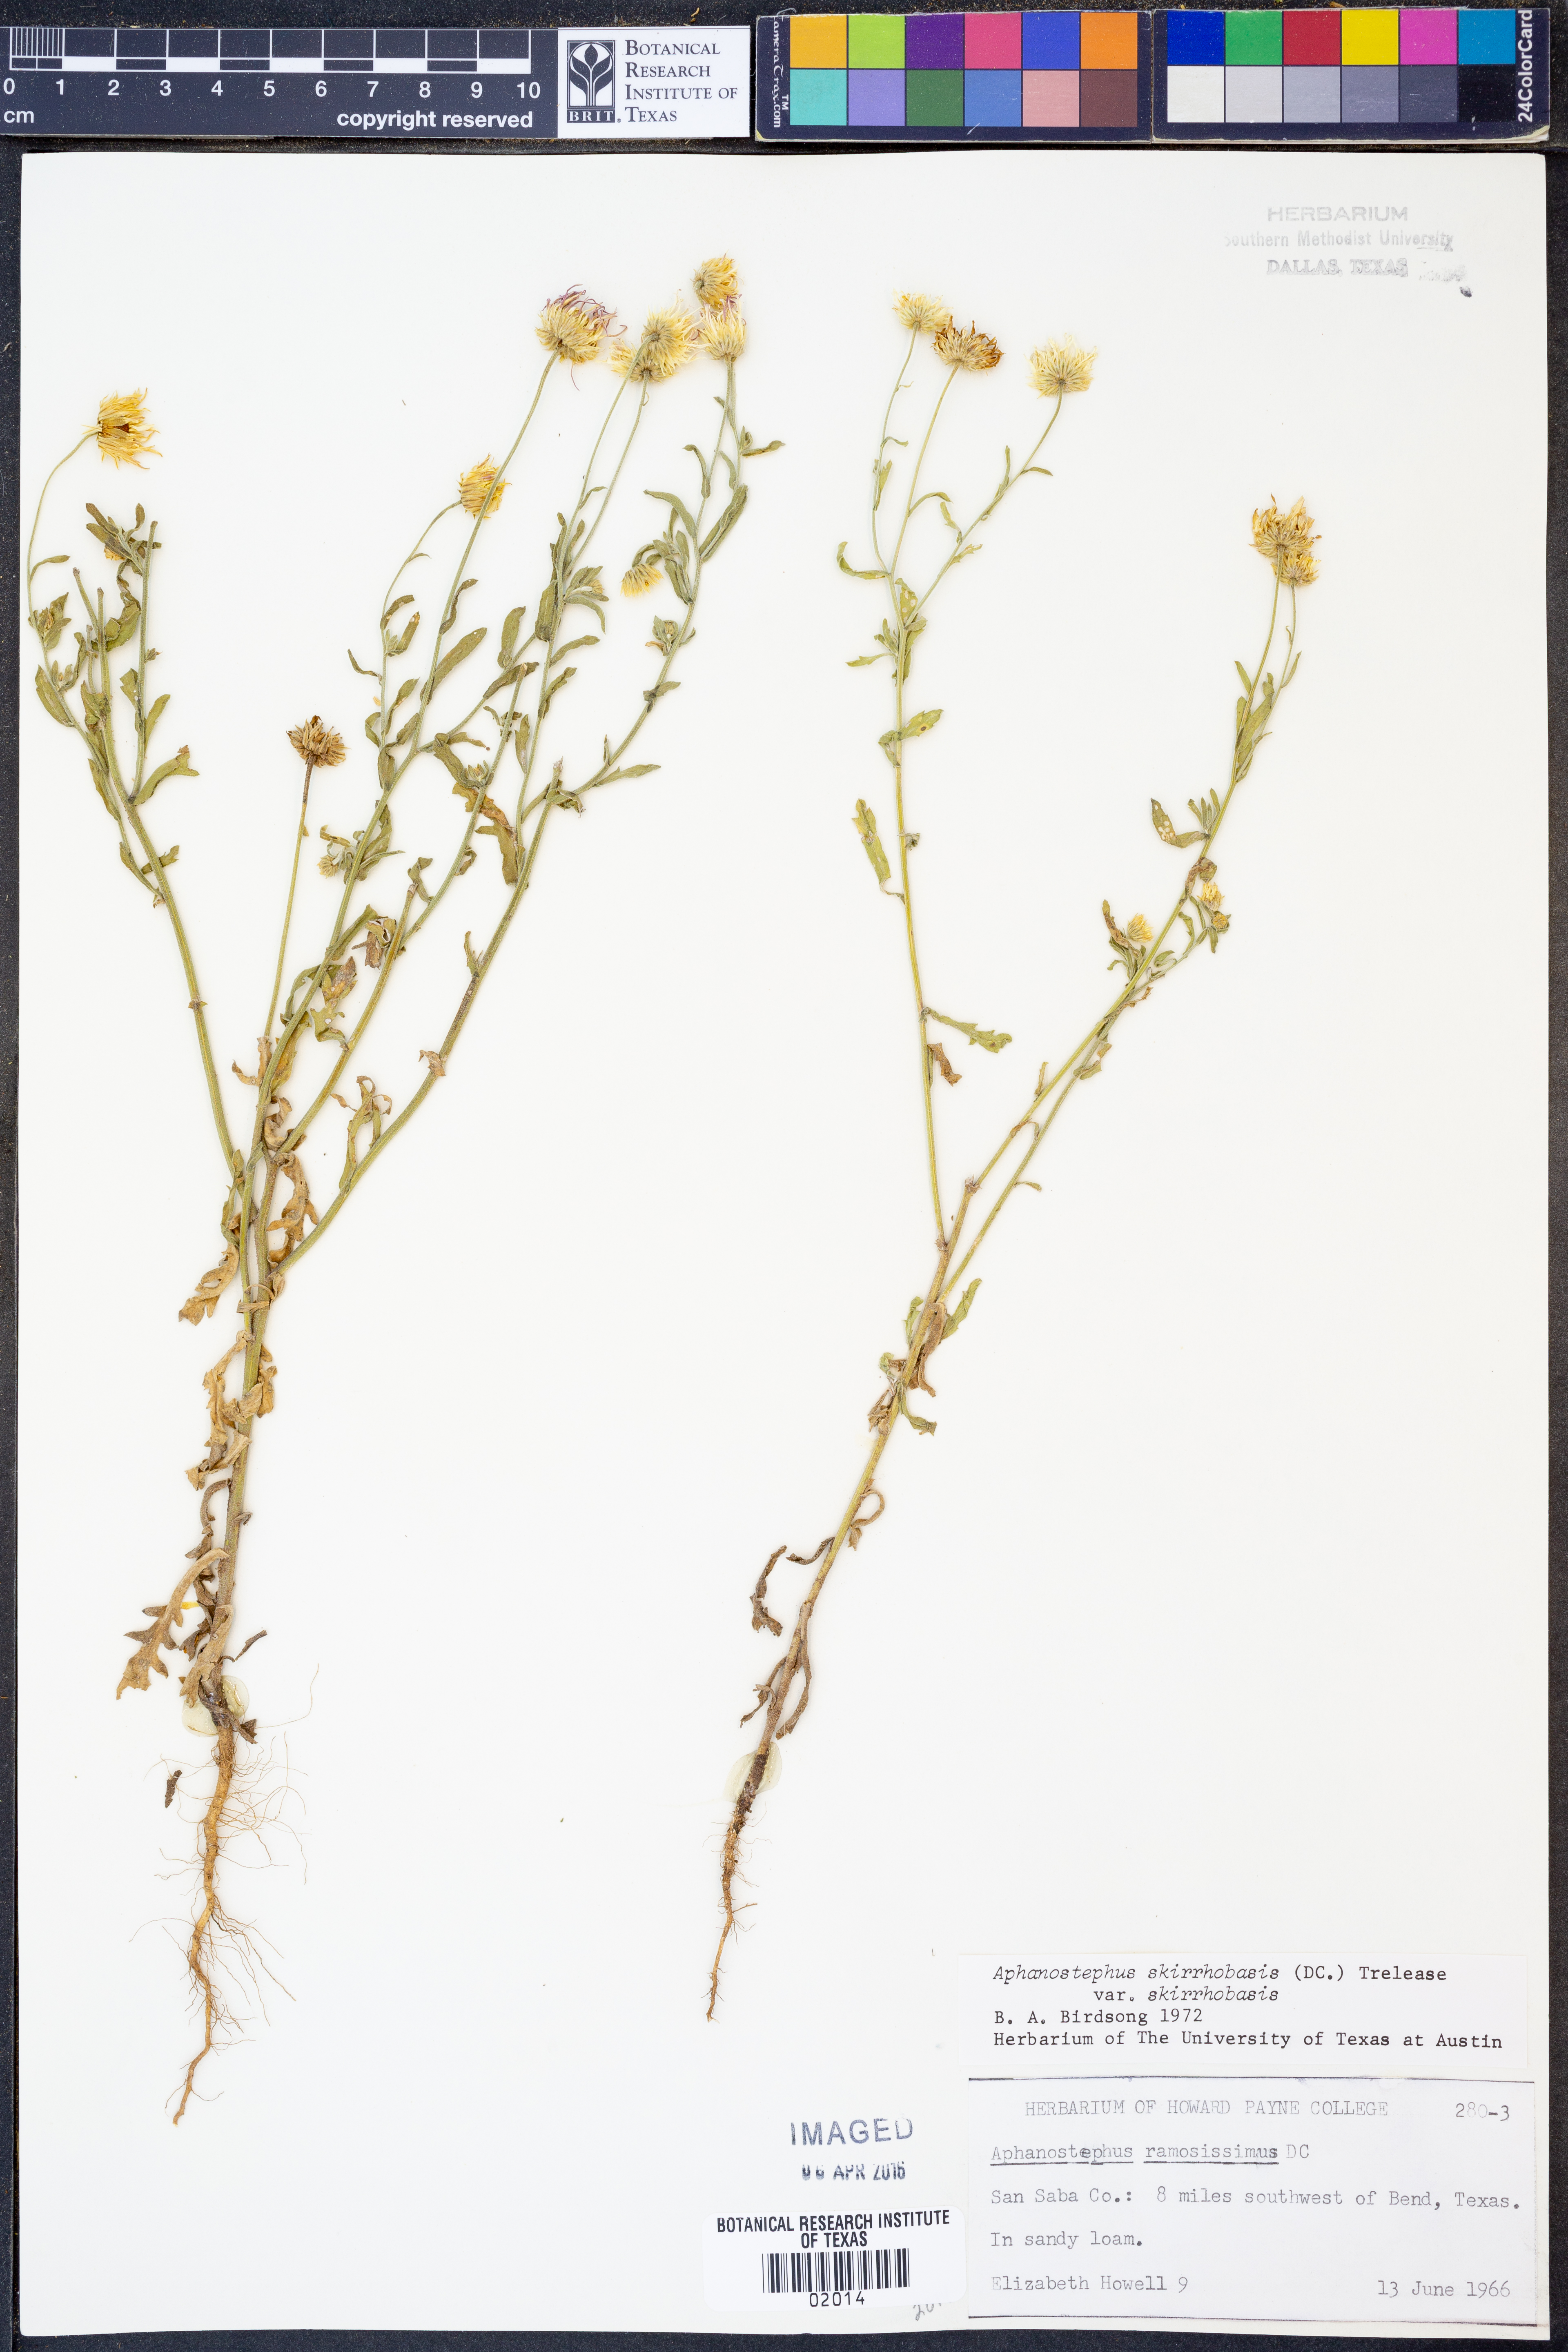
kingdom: Plantae
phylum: Tracheophyta
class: Magnoliopsida
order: Asterales
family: Asteraceae
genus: Aphanostephus
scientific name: Aphanostephus skirrhobasis
